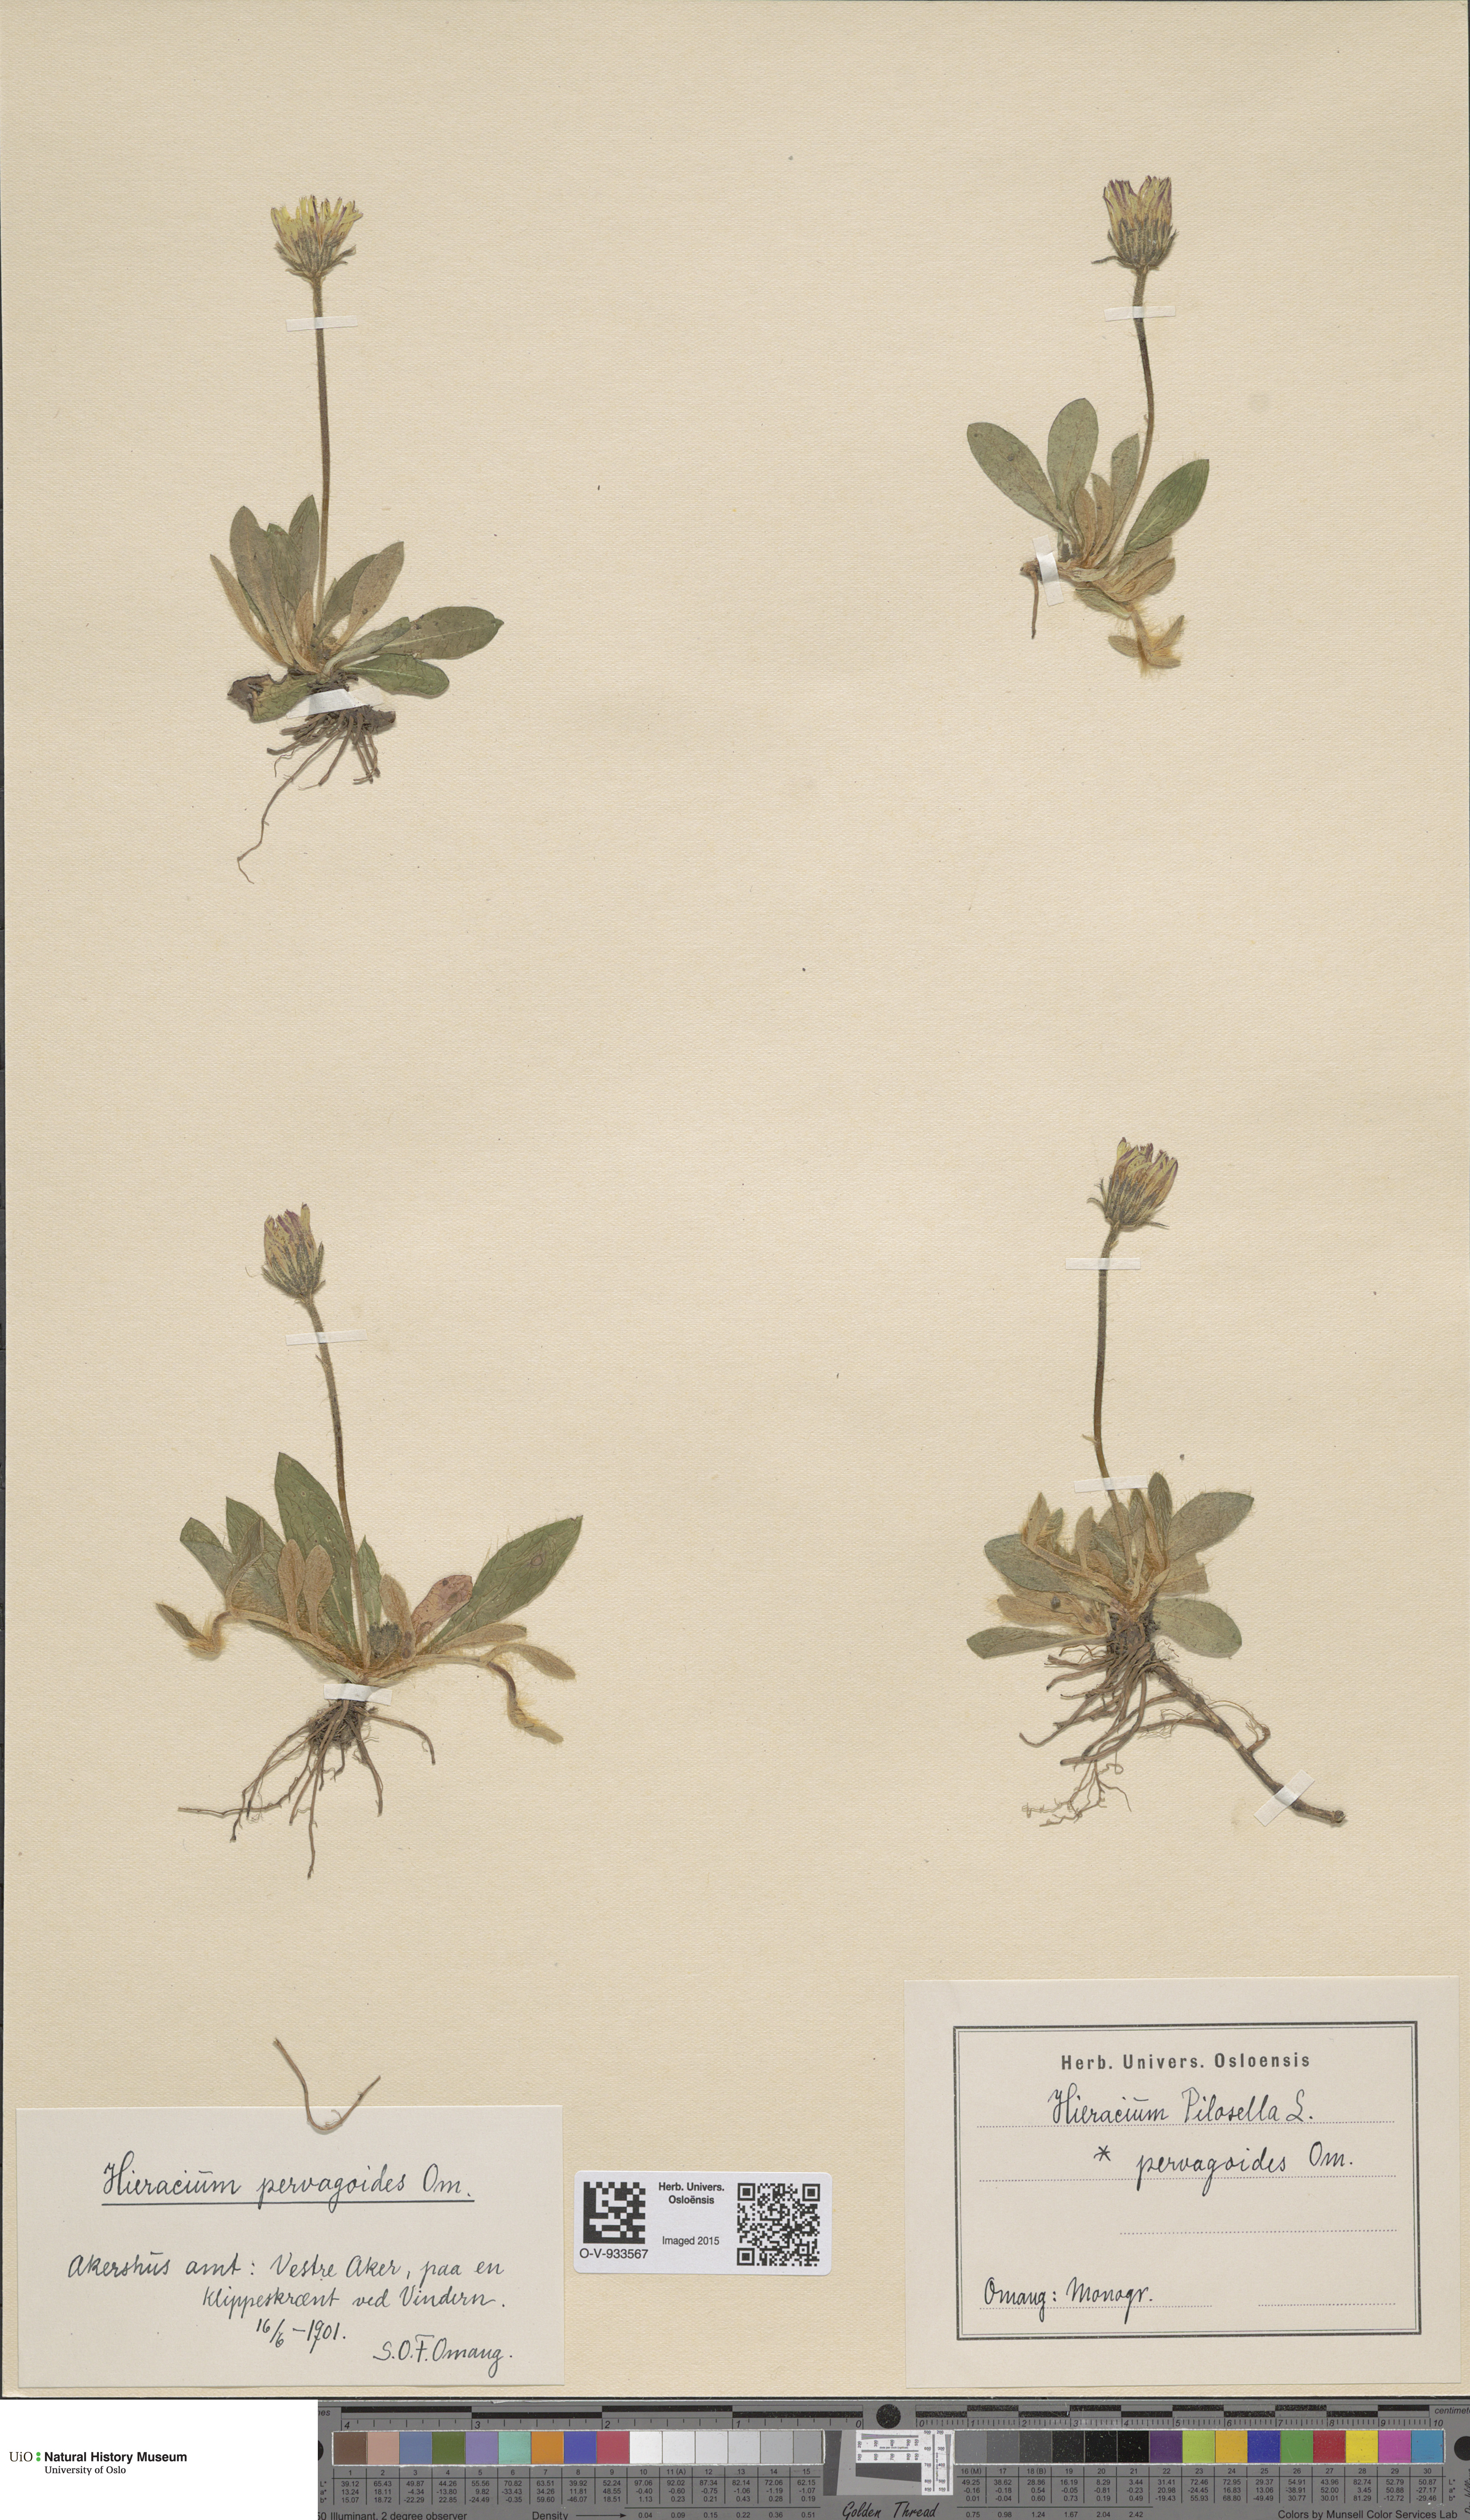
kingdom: Plantae
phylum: Tracheophyta
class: Magnoliopsida
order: Asterales
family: Asteraceae
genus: Pilosella
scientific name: Pilosella officinarum
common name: Mouse-ear hawkweed
